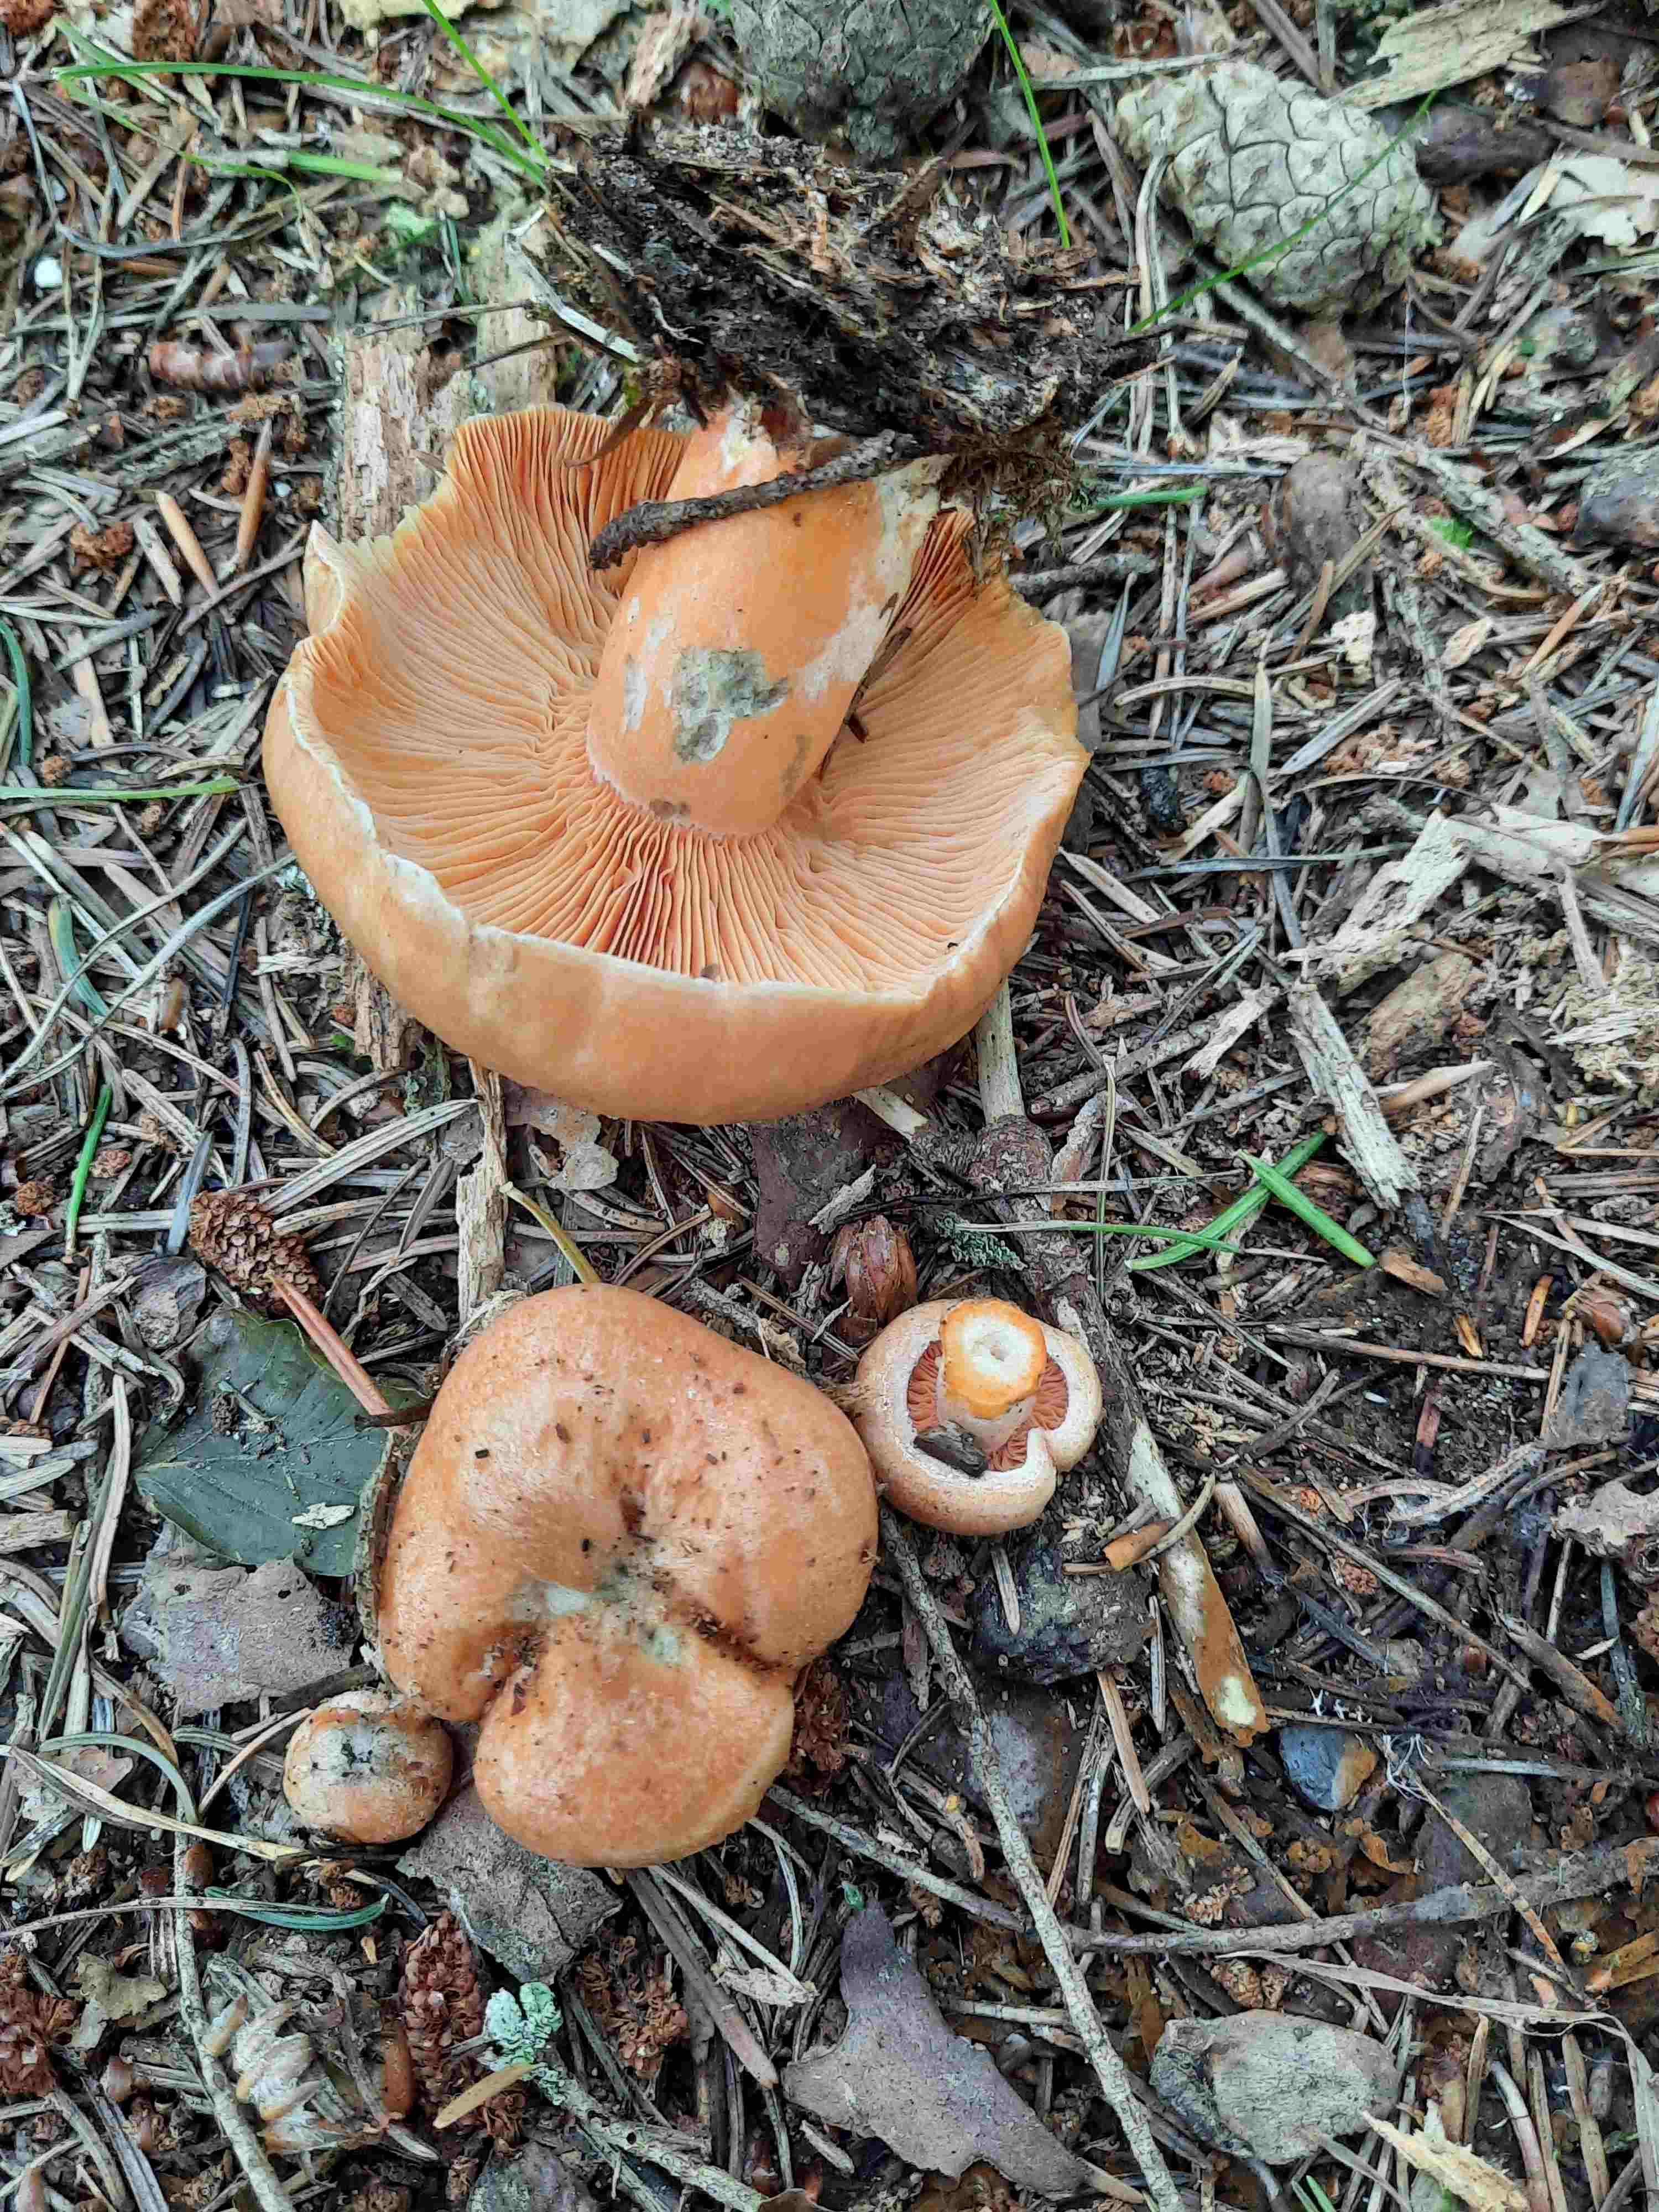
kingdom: Fungi
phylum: Basidiomycota
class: Agaricomycetes
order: Russulales
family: Russulaceae
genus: Lactarius
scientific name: Lactarius deterrimus
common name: gran-mælkehat
